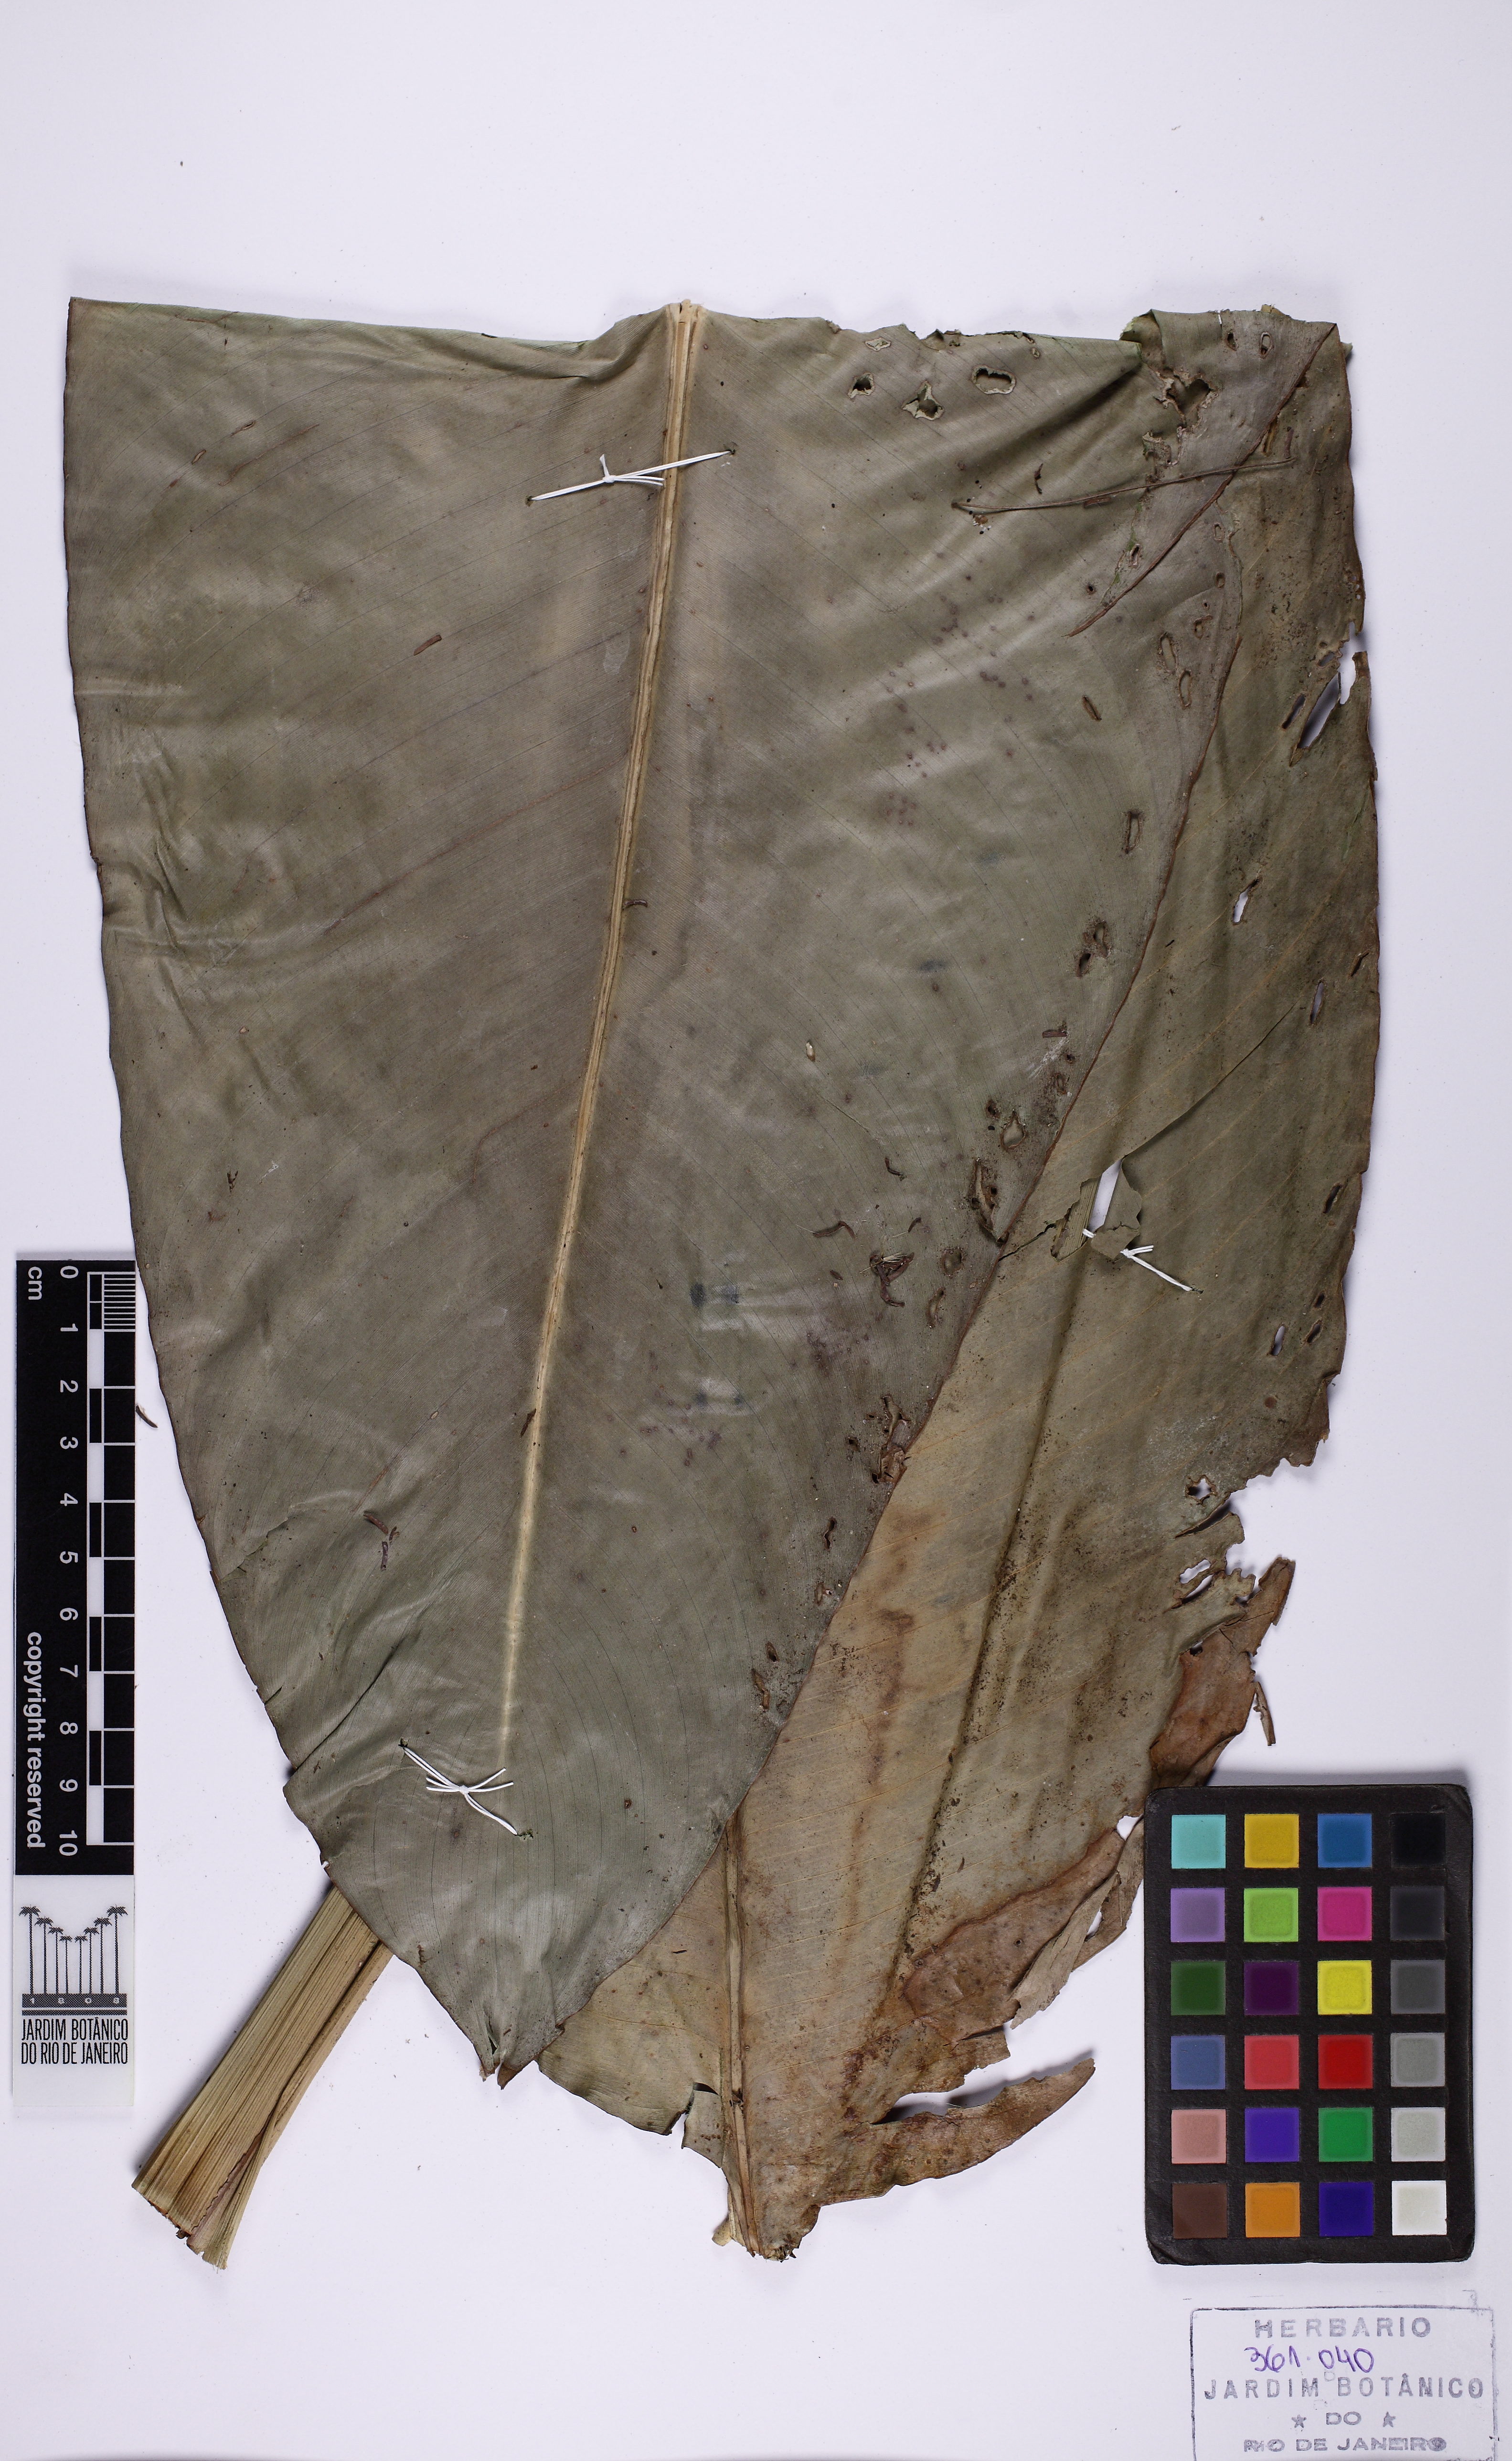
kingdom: Plantae
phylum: Tracheophyta
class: Liliopsida
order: Zingiberales
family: Heliconiaceae
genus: Heliconia
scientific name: Heliconia angusta
